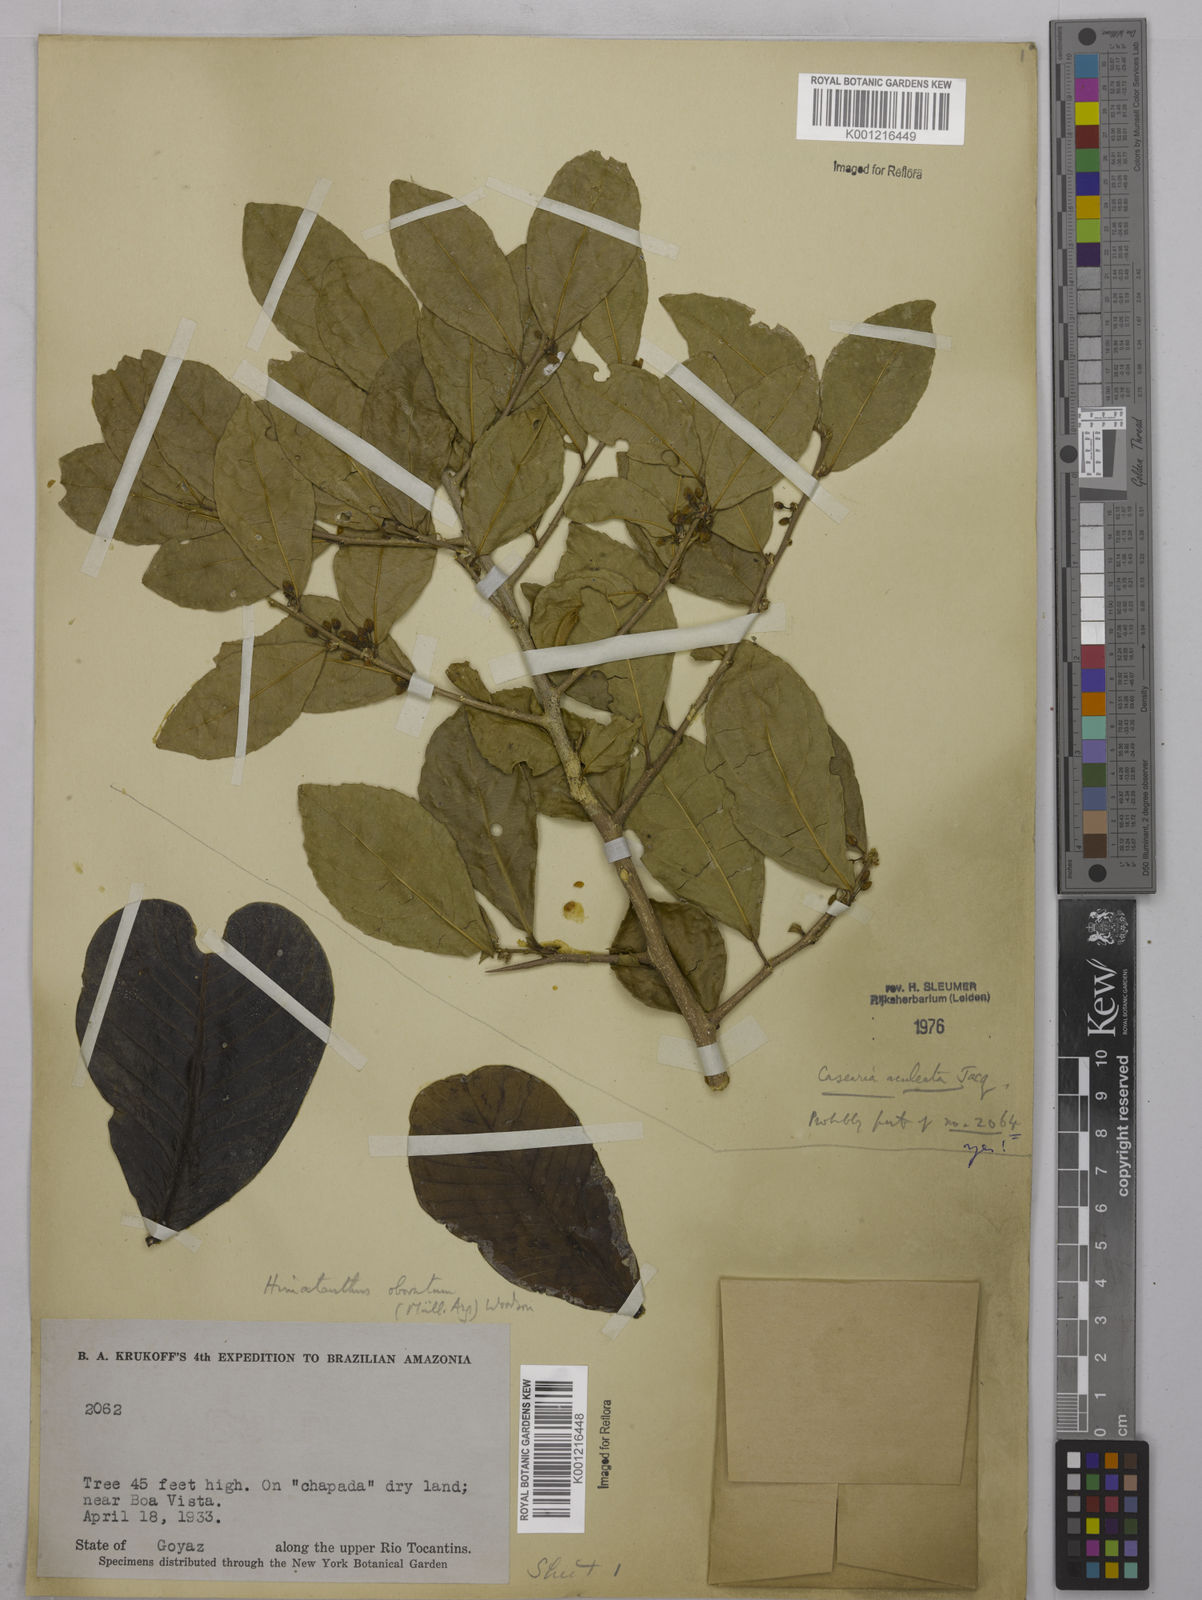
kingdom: Plantae
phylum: Tracheophyta
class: Magnoliopsida
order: Malpighiales
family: Salicaceae
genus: Casearia
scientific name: Casearia aculeata
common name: Cockspur
